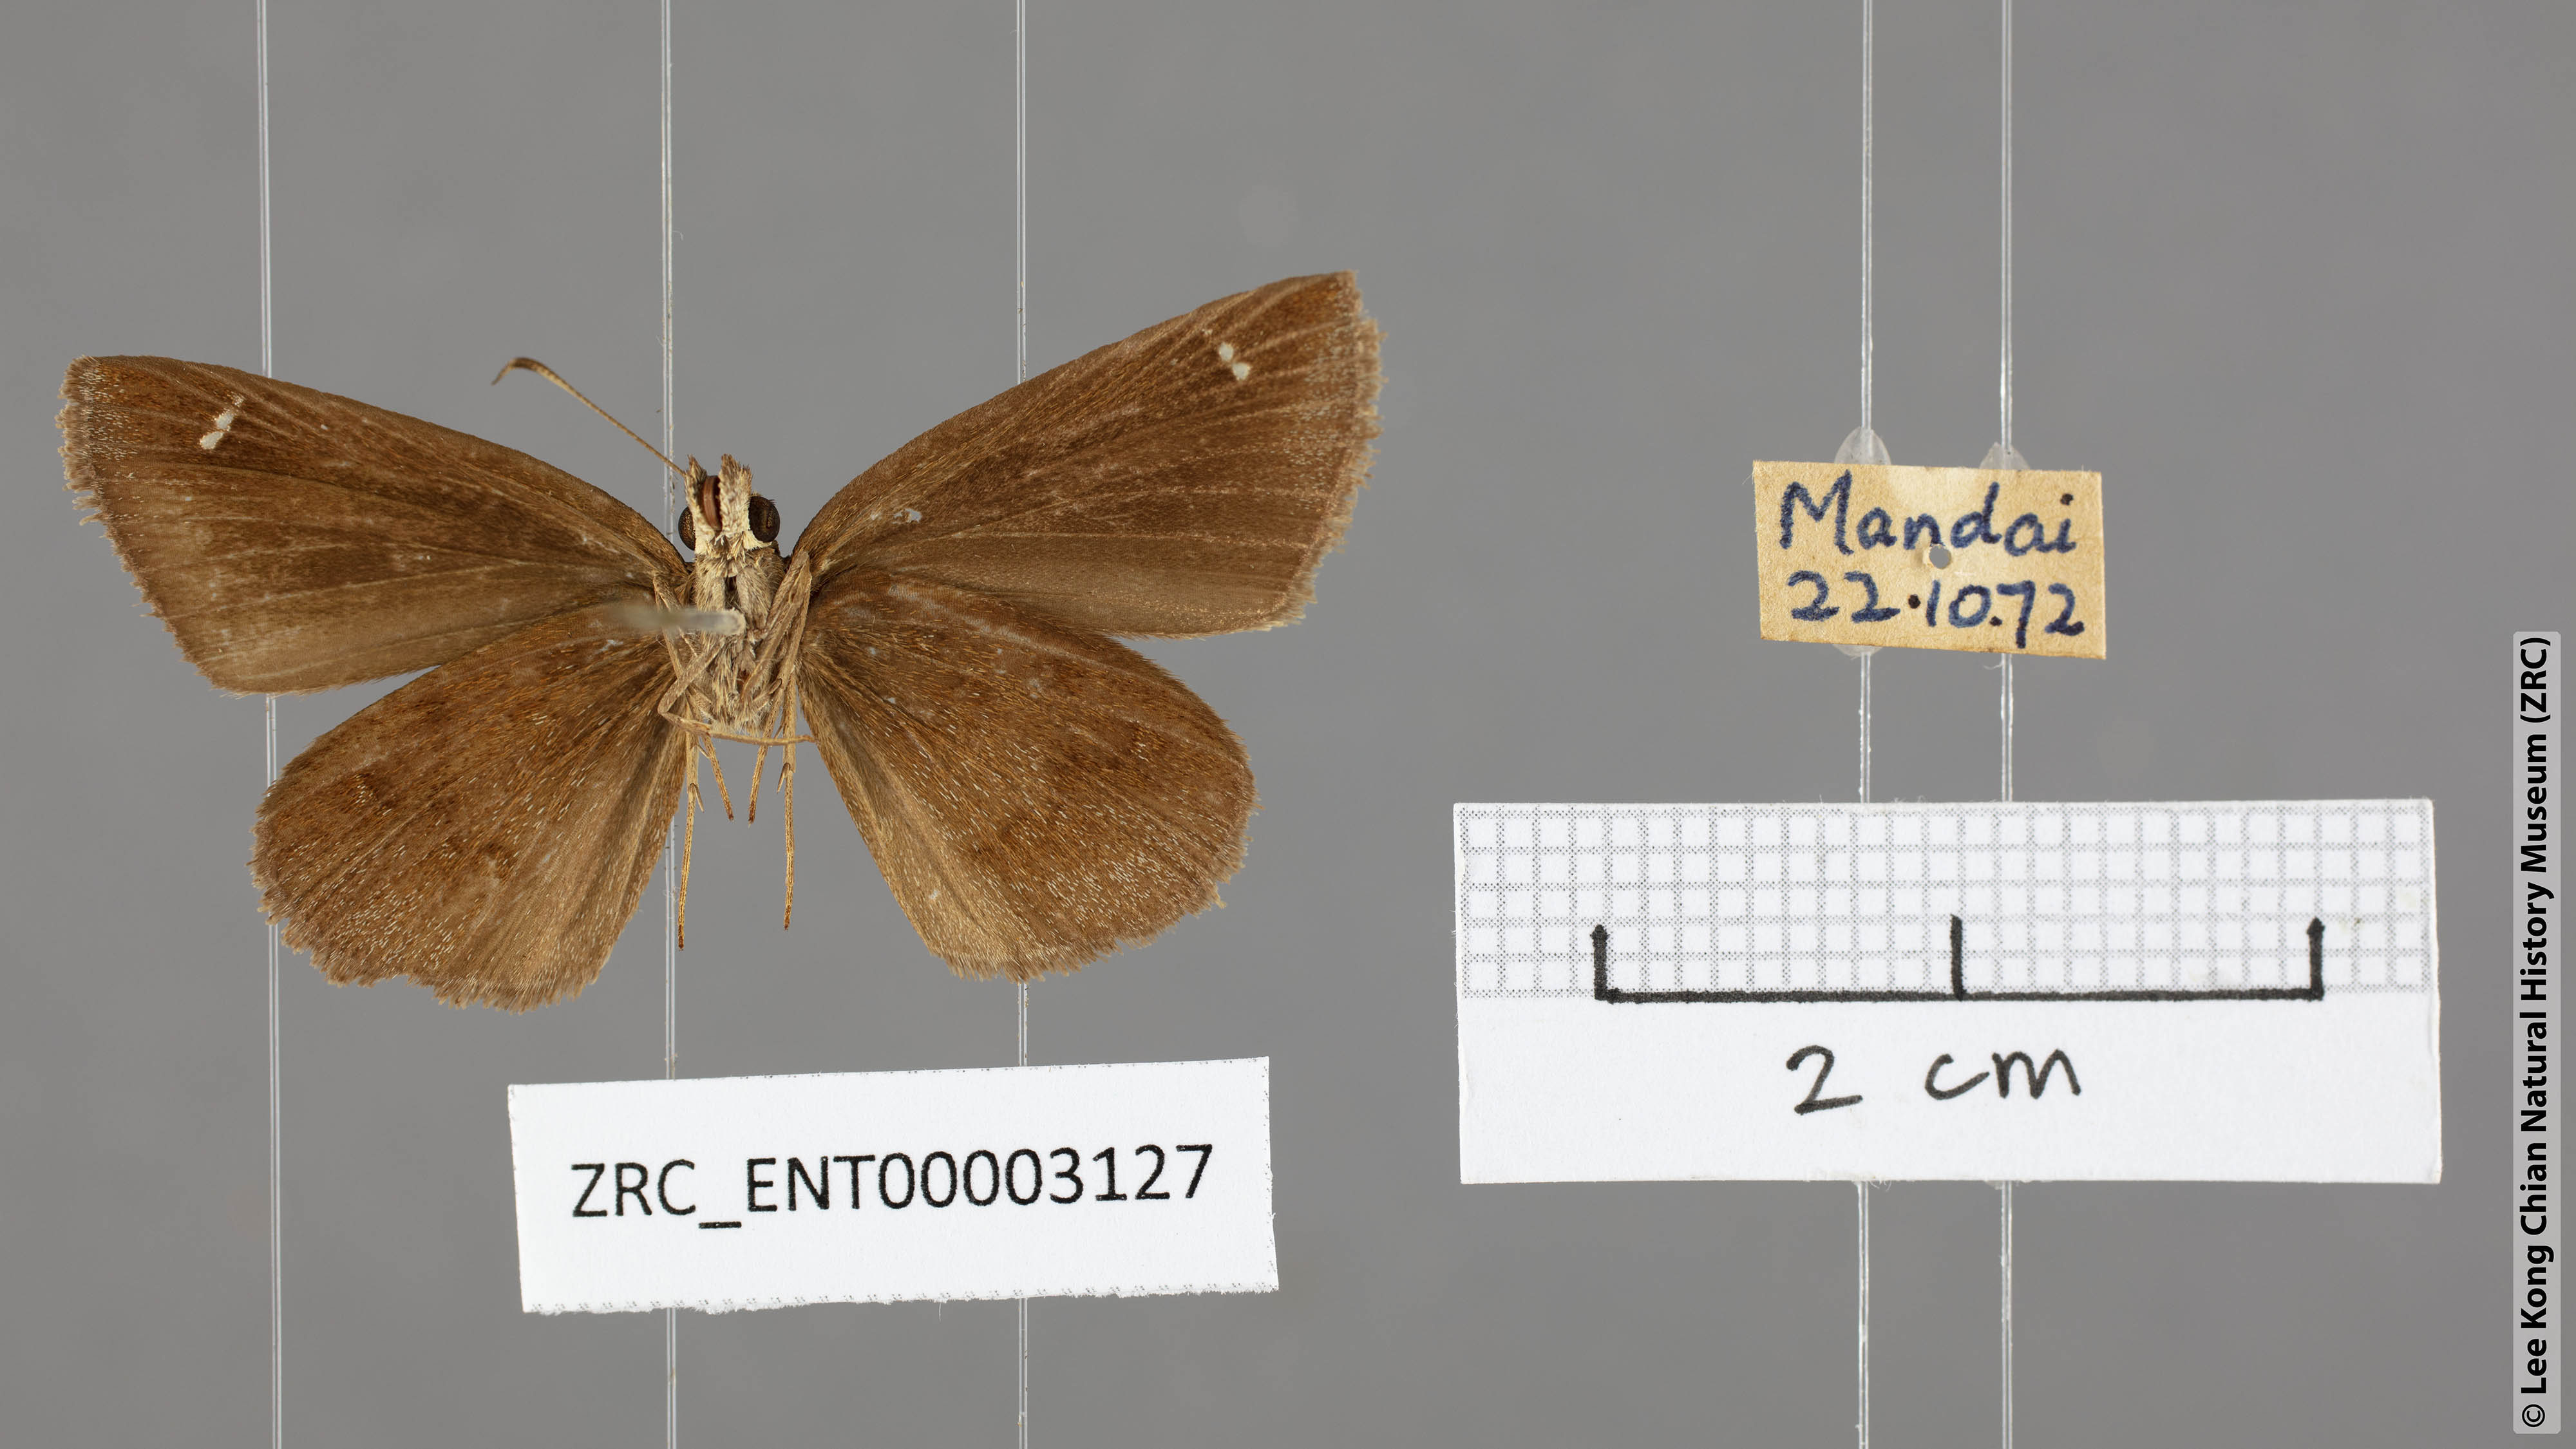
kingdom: Animalia
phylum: Arthropoda
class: Insecta
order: Lepidoptera
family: Hesperiidae
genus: Astictopterus
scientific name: Astictopterus jama
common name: Forest hopper
